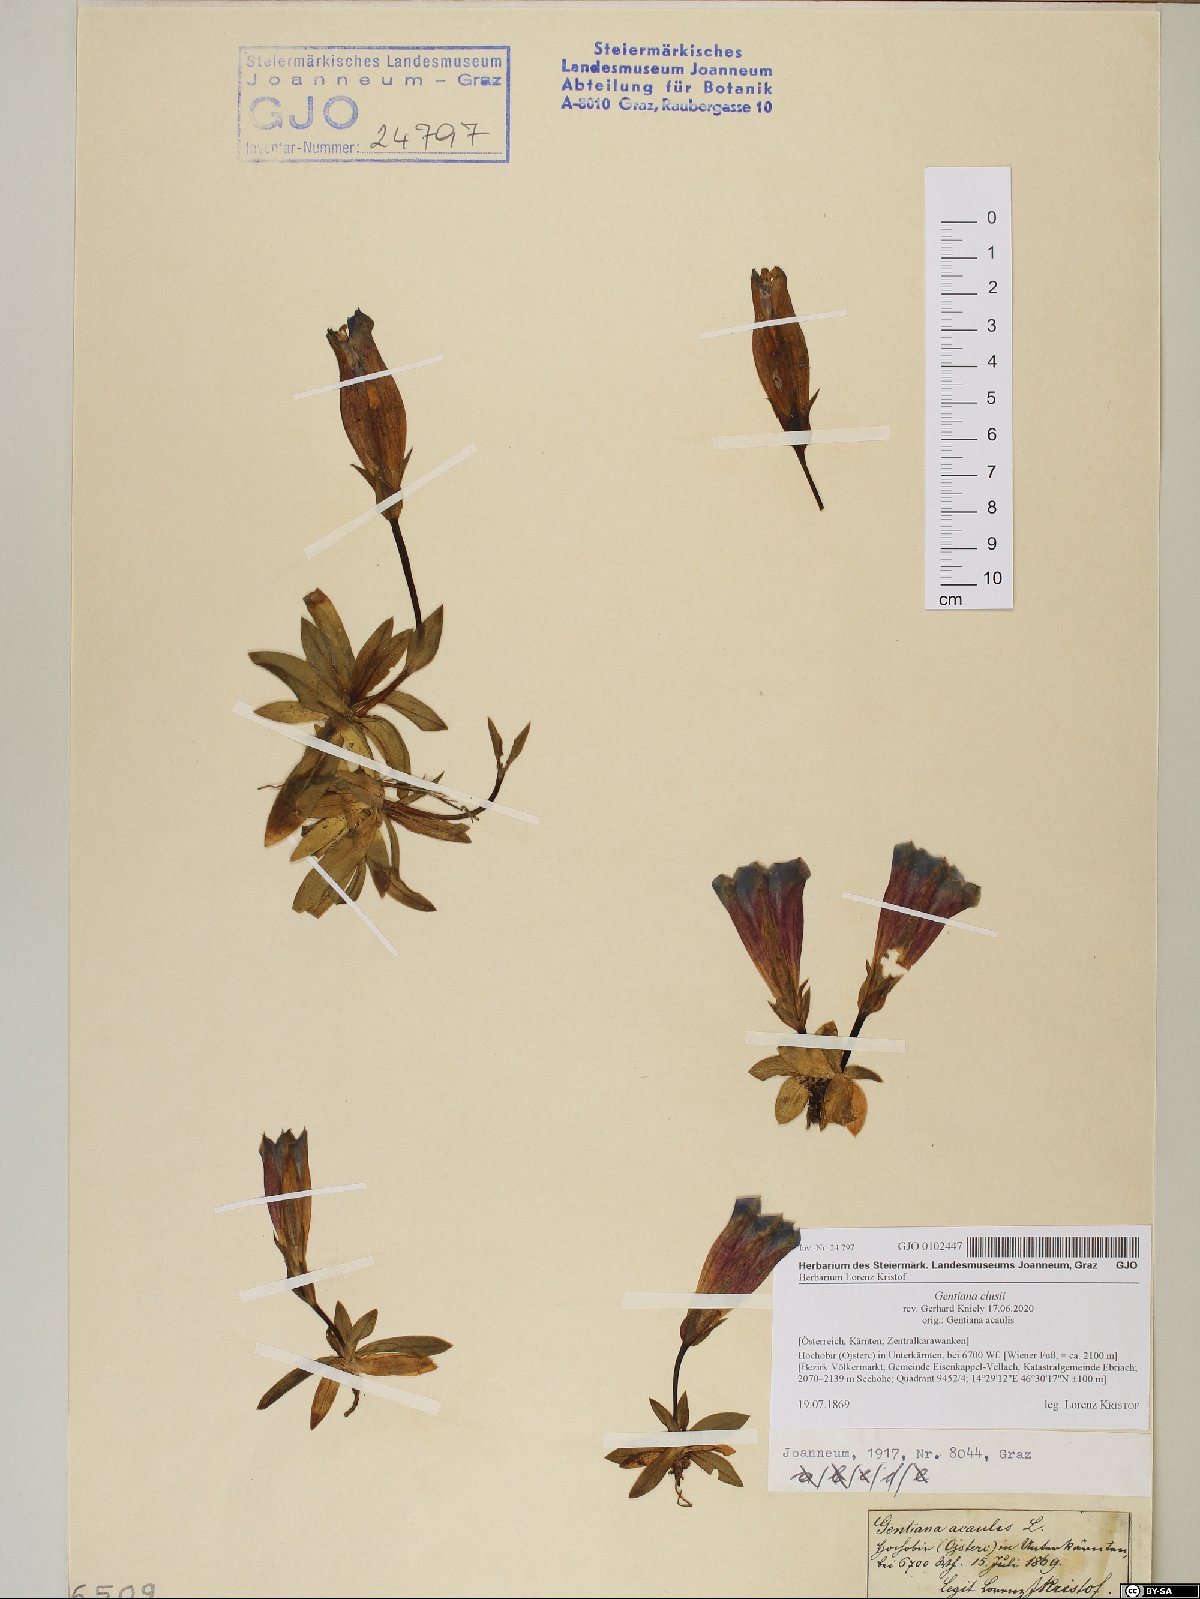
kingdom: Plantae
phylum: Tracheophyta
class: Magnoliopsida
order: Gentianales
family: Gentianaceae
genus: Gentiana
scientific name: Gentiana clusii
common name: Trumpet gentian
